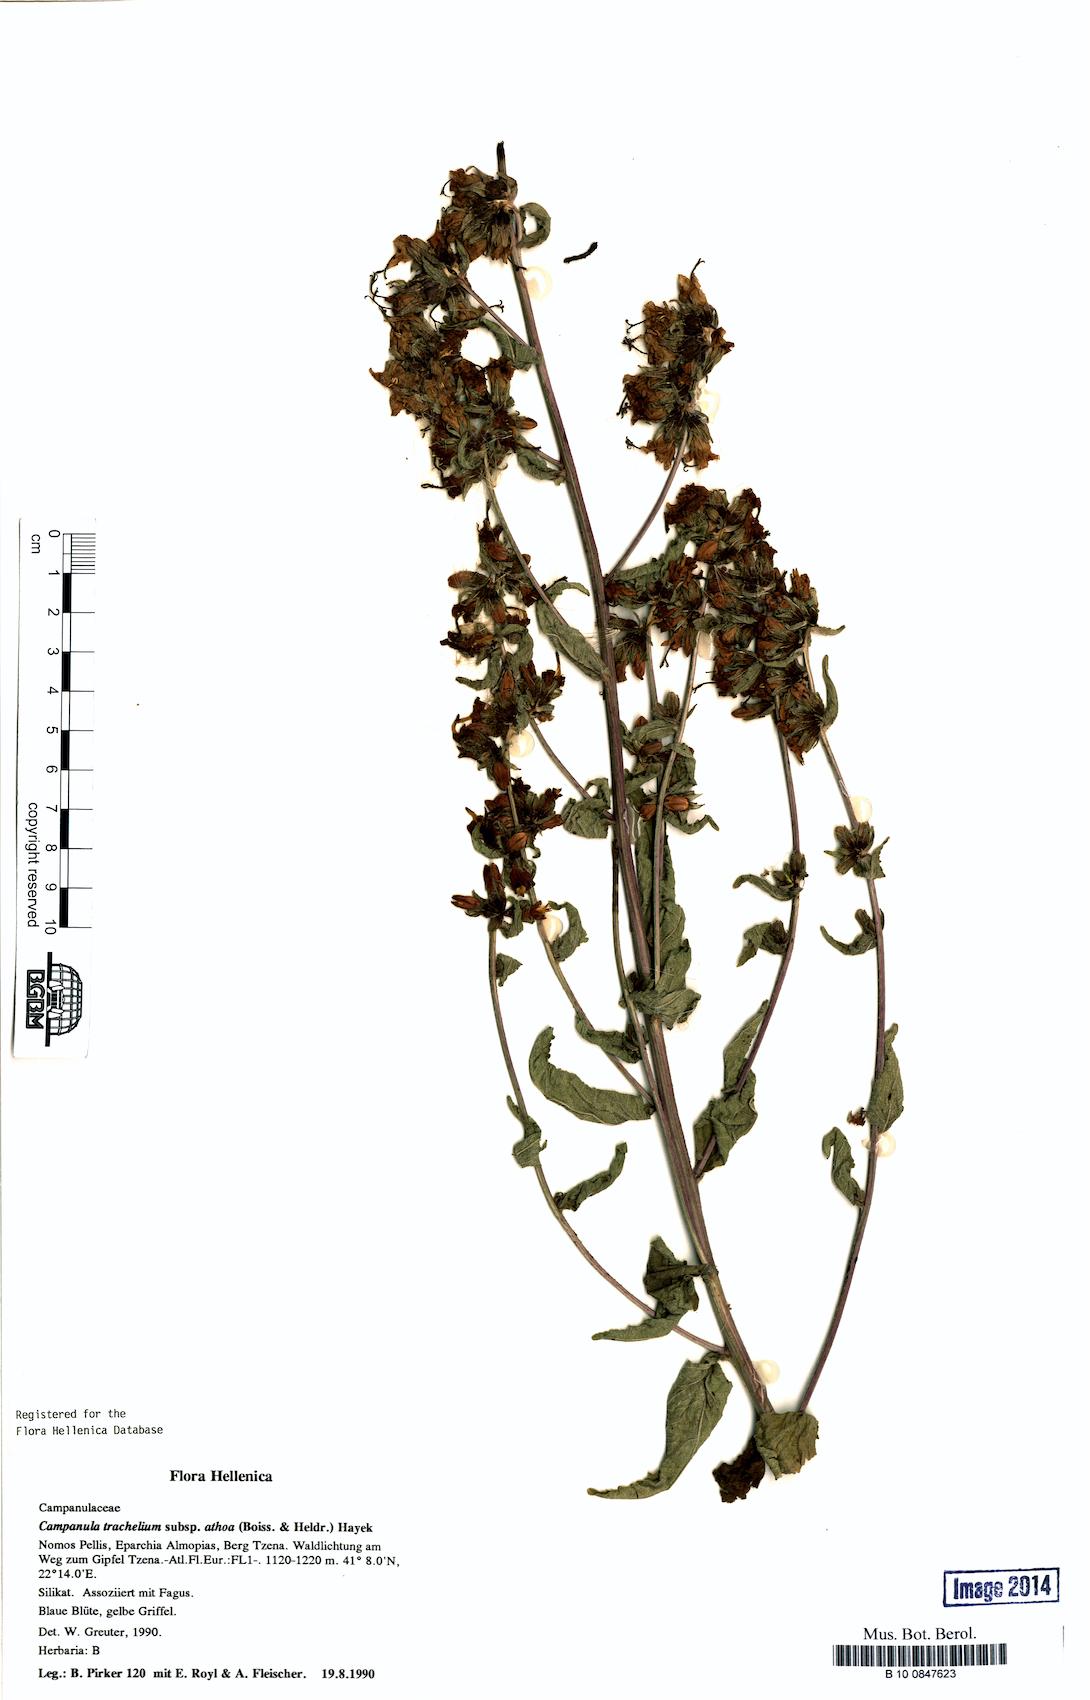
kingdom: Plantae
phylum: Tracheophyta
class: Magnoliopsida
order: Asterales
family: Campanulaceae
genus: Campanula
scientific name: Campanula trachelium
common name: Nettle-leaved bellflower
